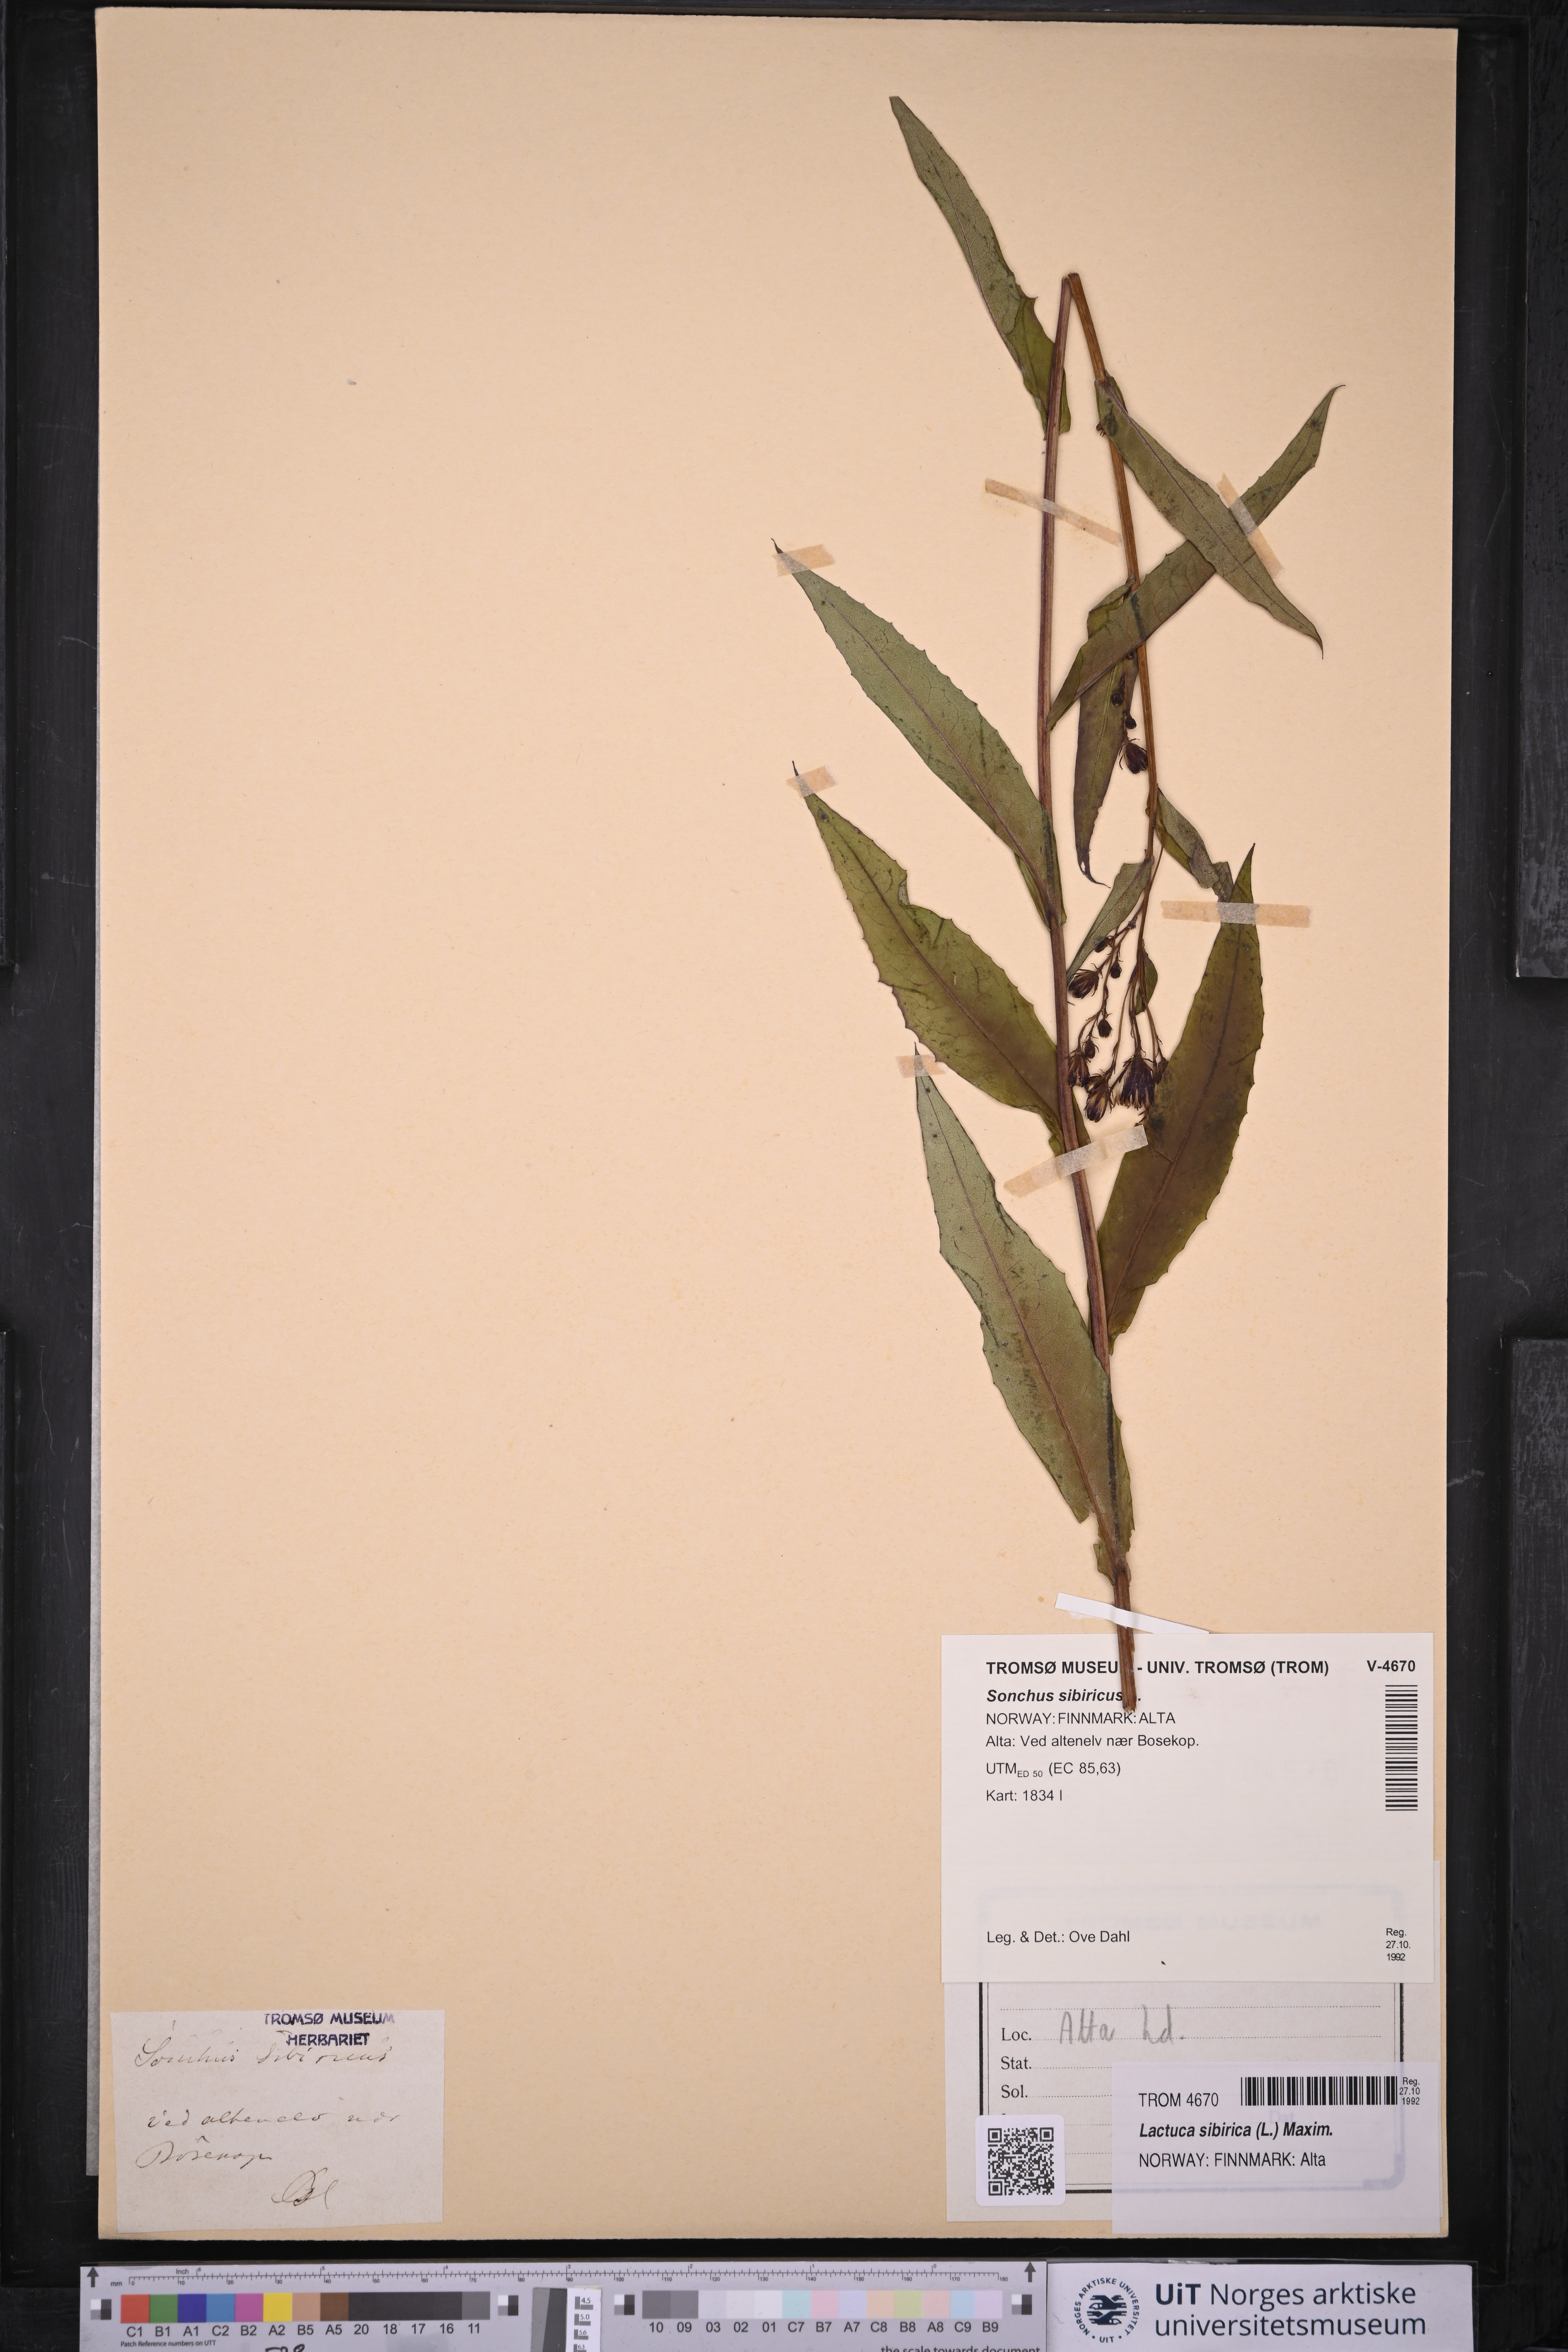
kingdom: Plantae
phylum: Tracheophyta
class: Magnoliopsida
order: Asterales
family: Asteraceae
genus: Lactuca
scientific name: Lactuca sibirica
